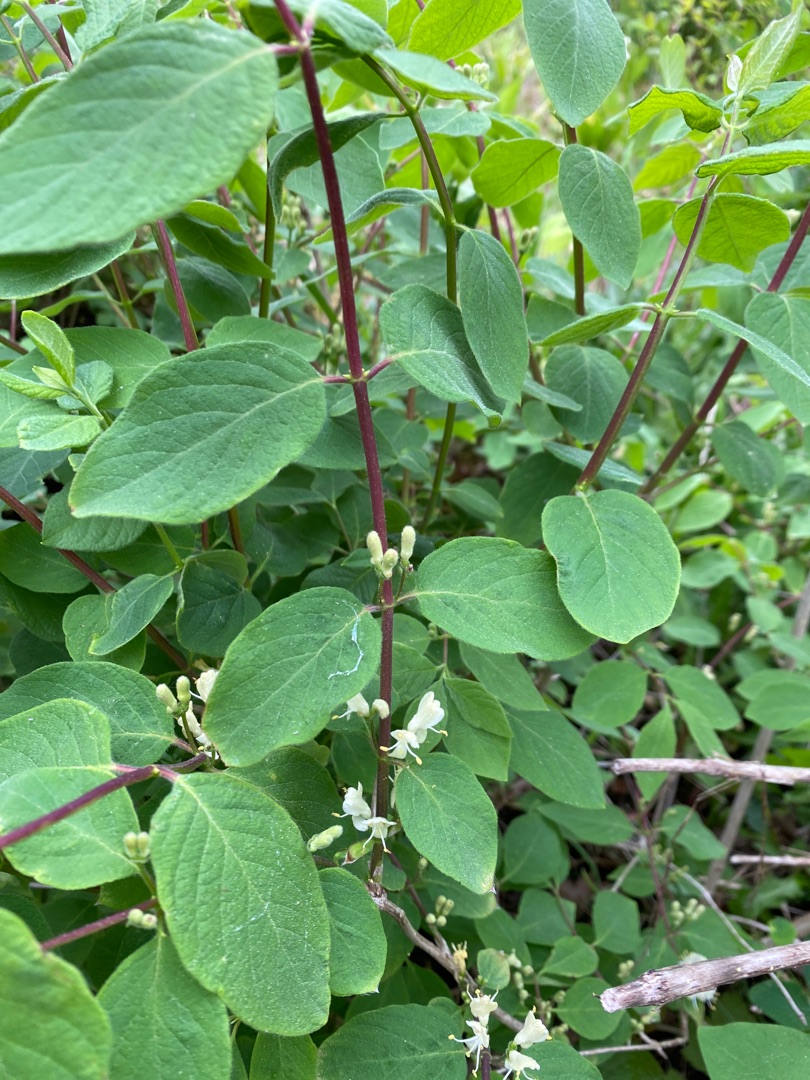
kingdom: Plantae
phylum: Tracheophyta
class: Magnoliopsida
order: Dipsacales
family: Caprifoliaceae
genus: Lonicera
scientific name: Lonicera xylosteum
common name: Dunet gedeblad
